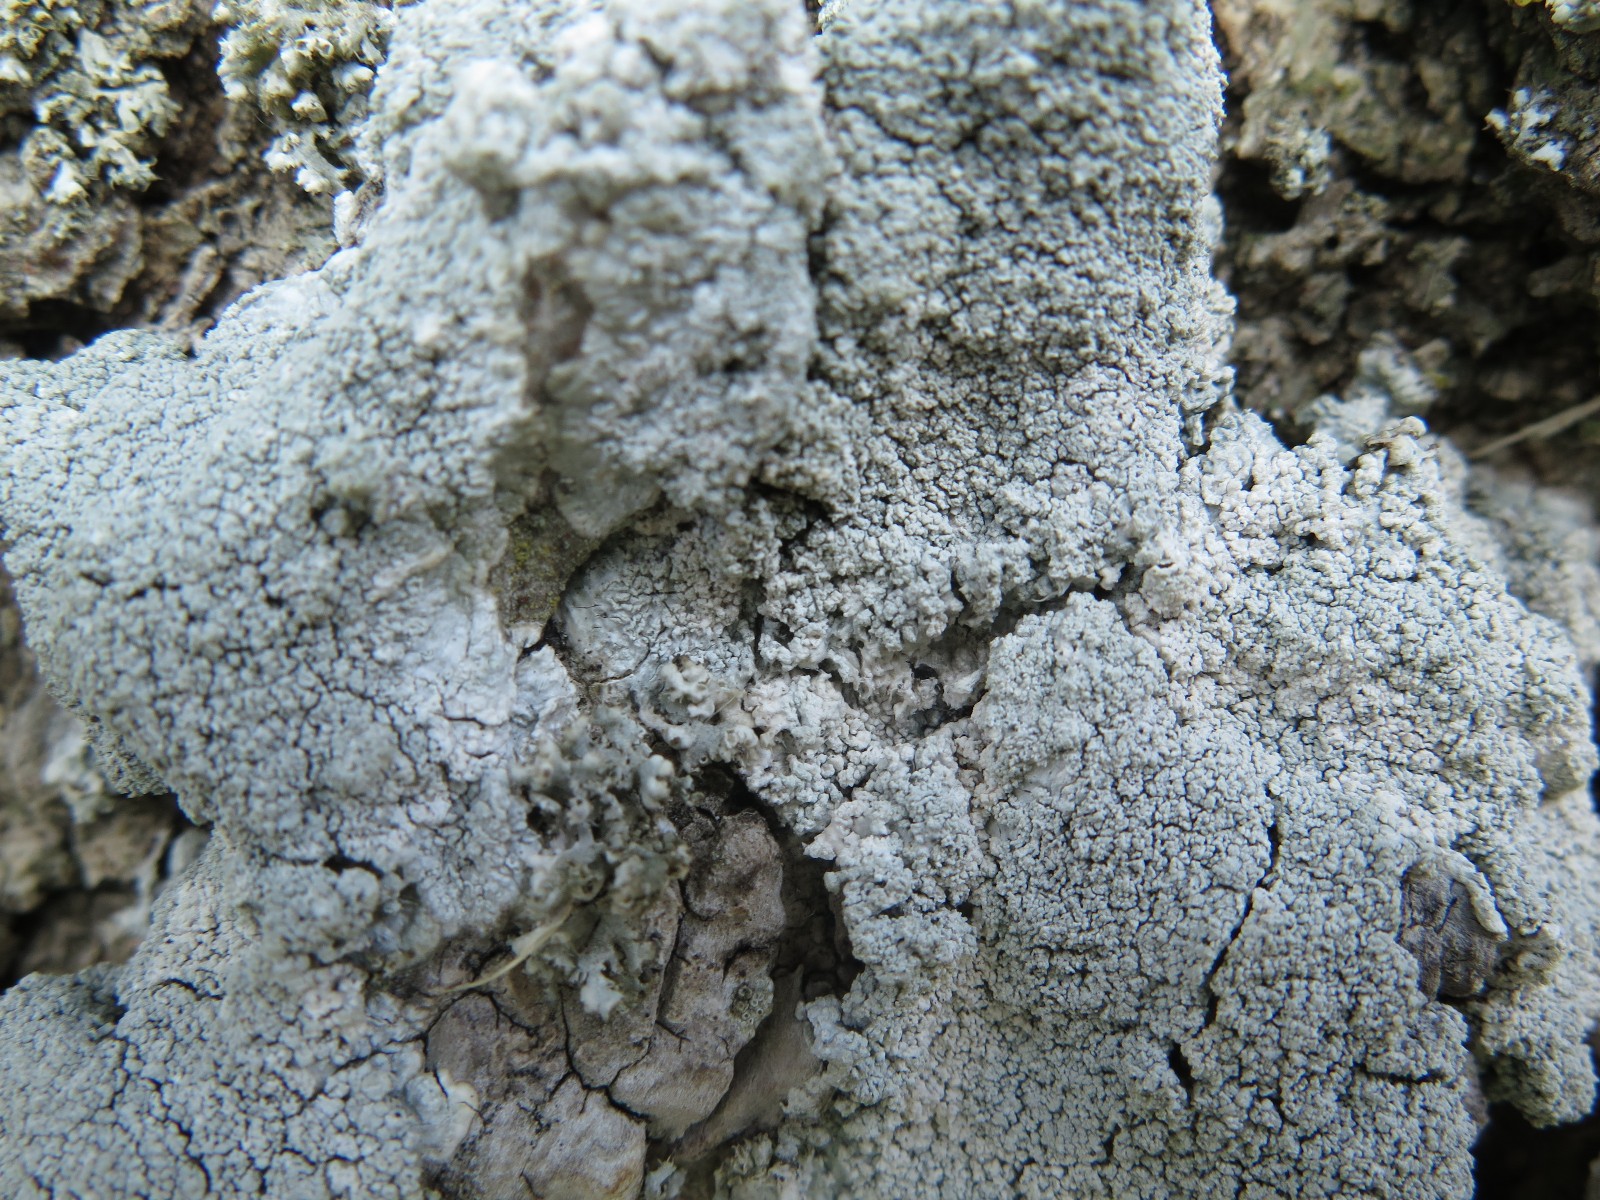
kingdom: Fungi
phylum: Ascomycota
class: Lecanoromycetes
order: Pertusariales
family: Pertusariaceae
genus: Lepra
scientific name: Lepra albescens
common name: hvidmelet prikvortelav
